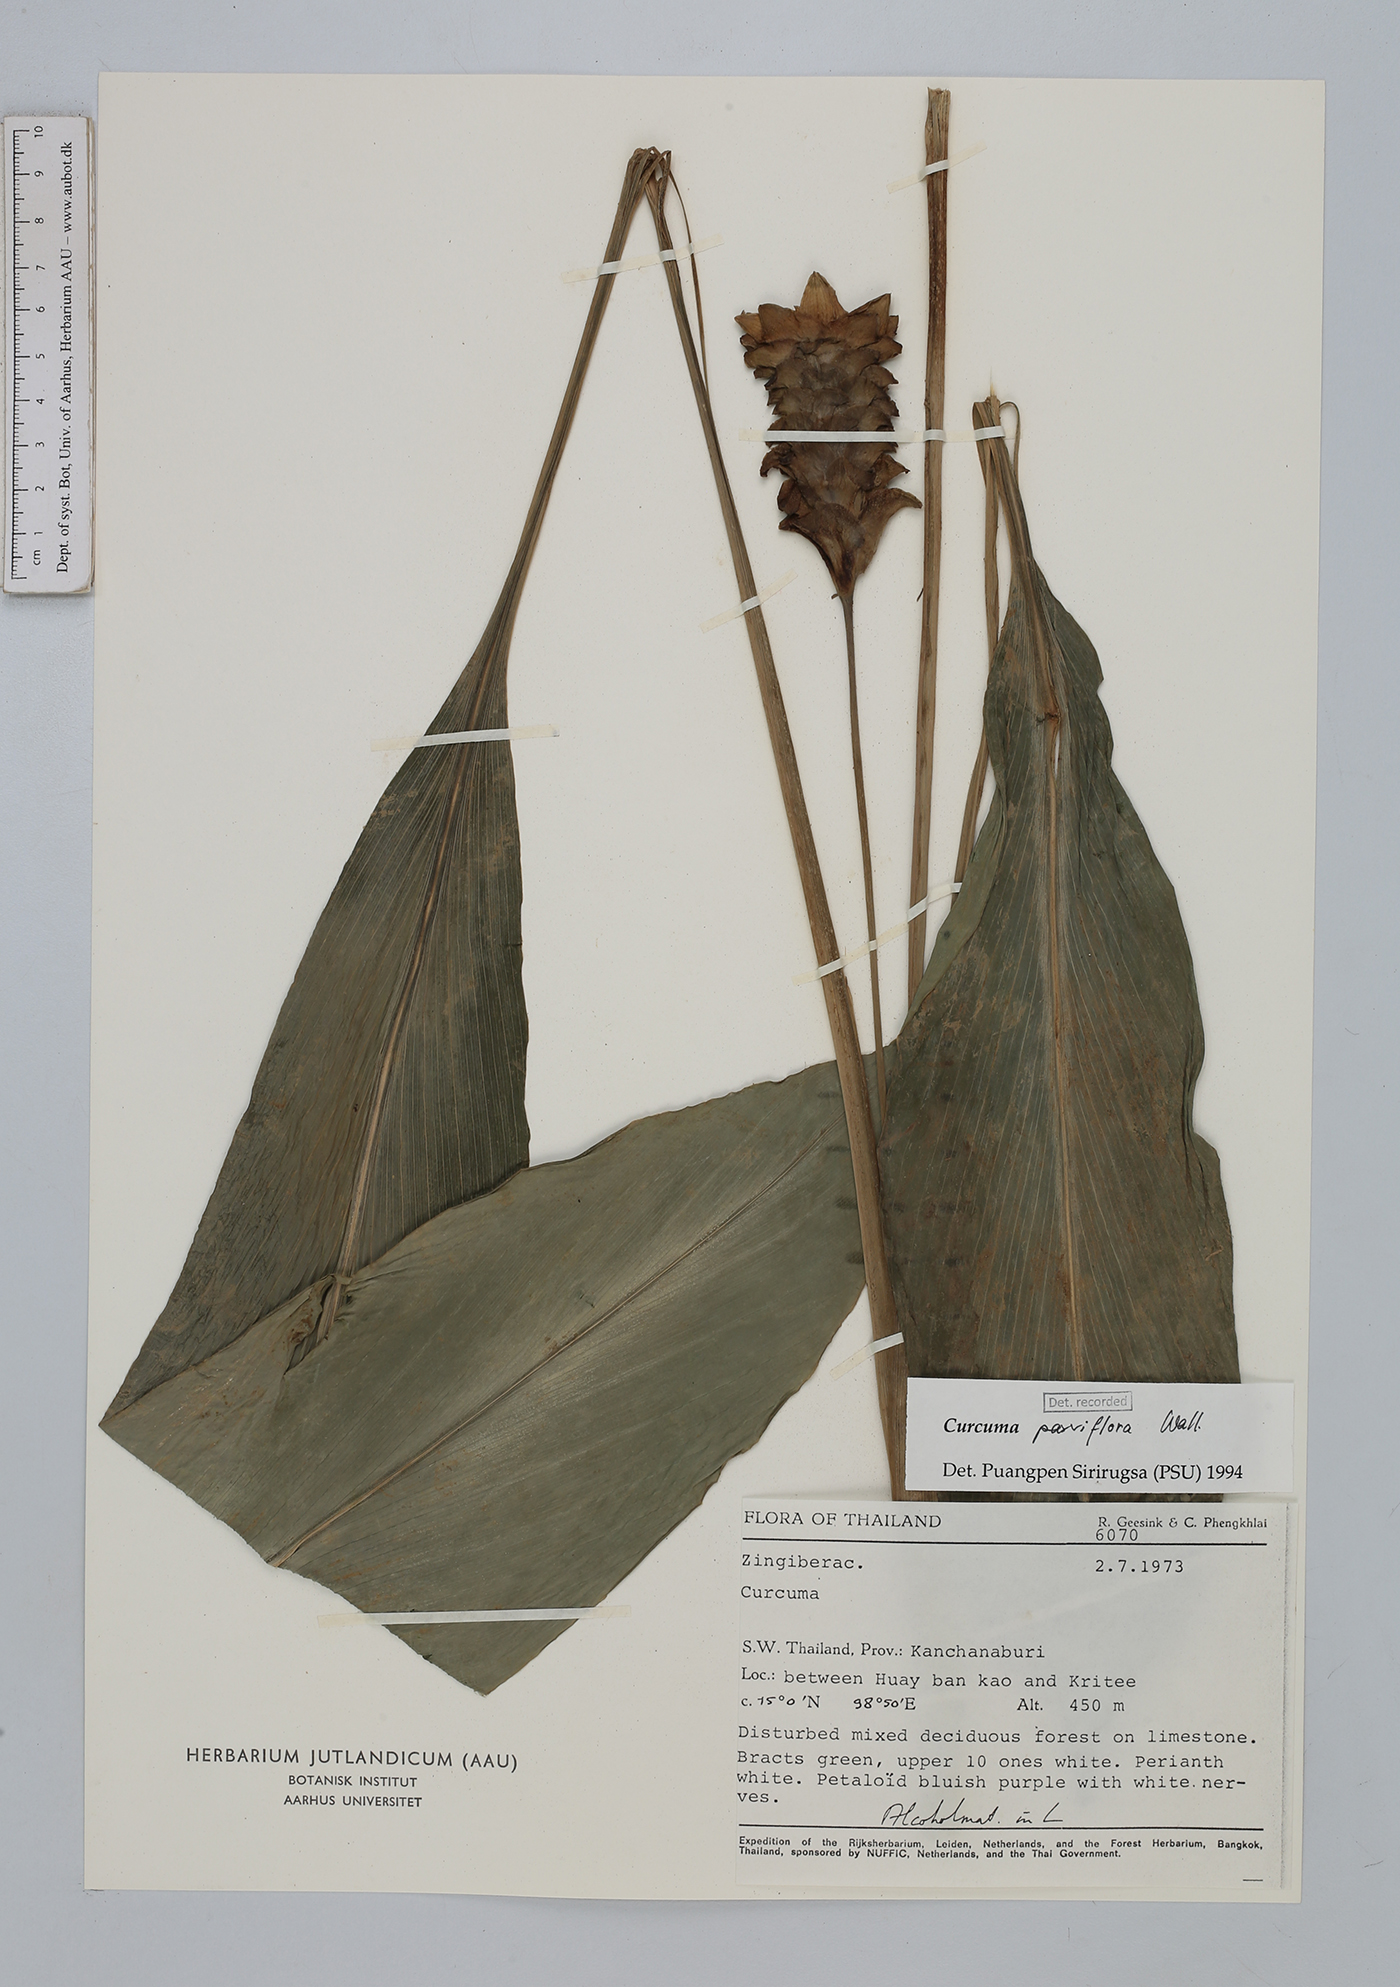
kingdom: Plantae
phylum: Tracheophyta
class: Liliopsida
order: Zingiberales
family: Zingiberaceae
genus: Curcuma
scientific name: Curcuma parviflora
